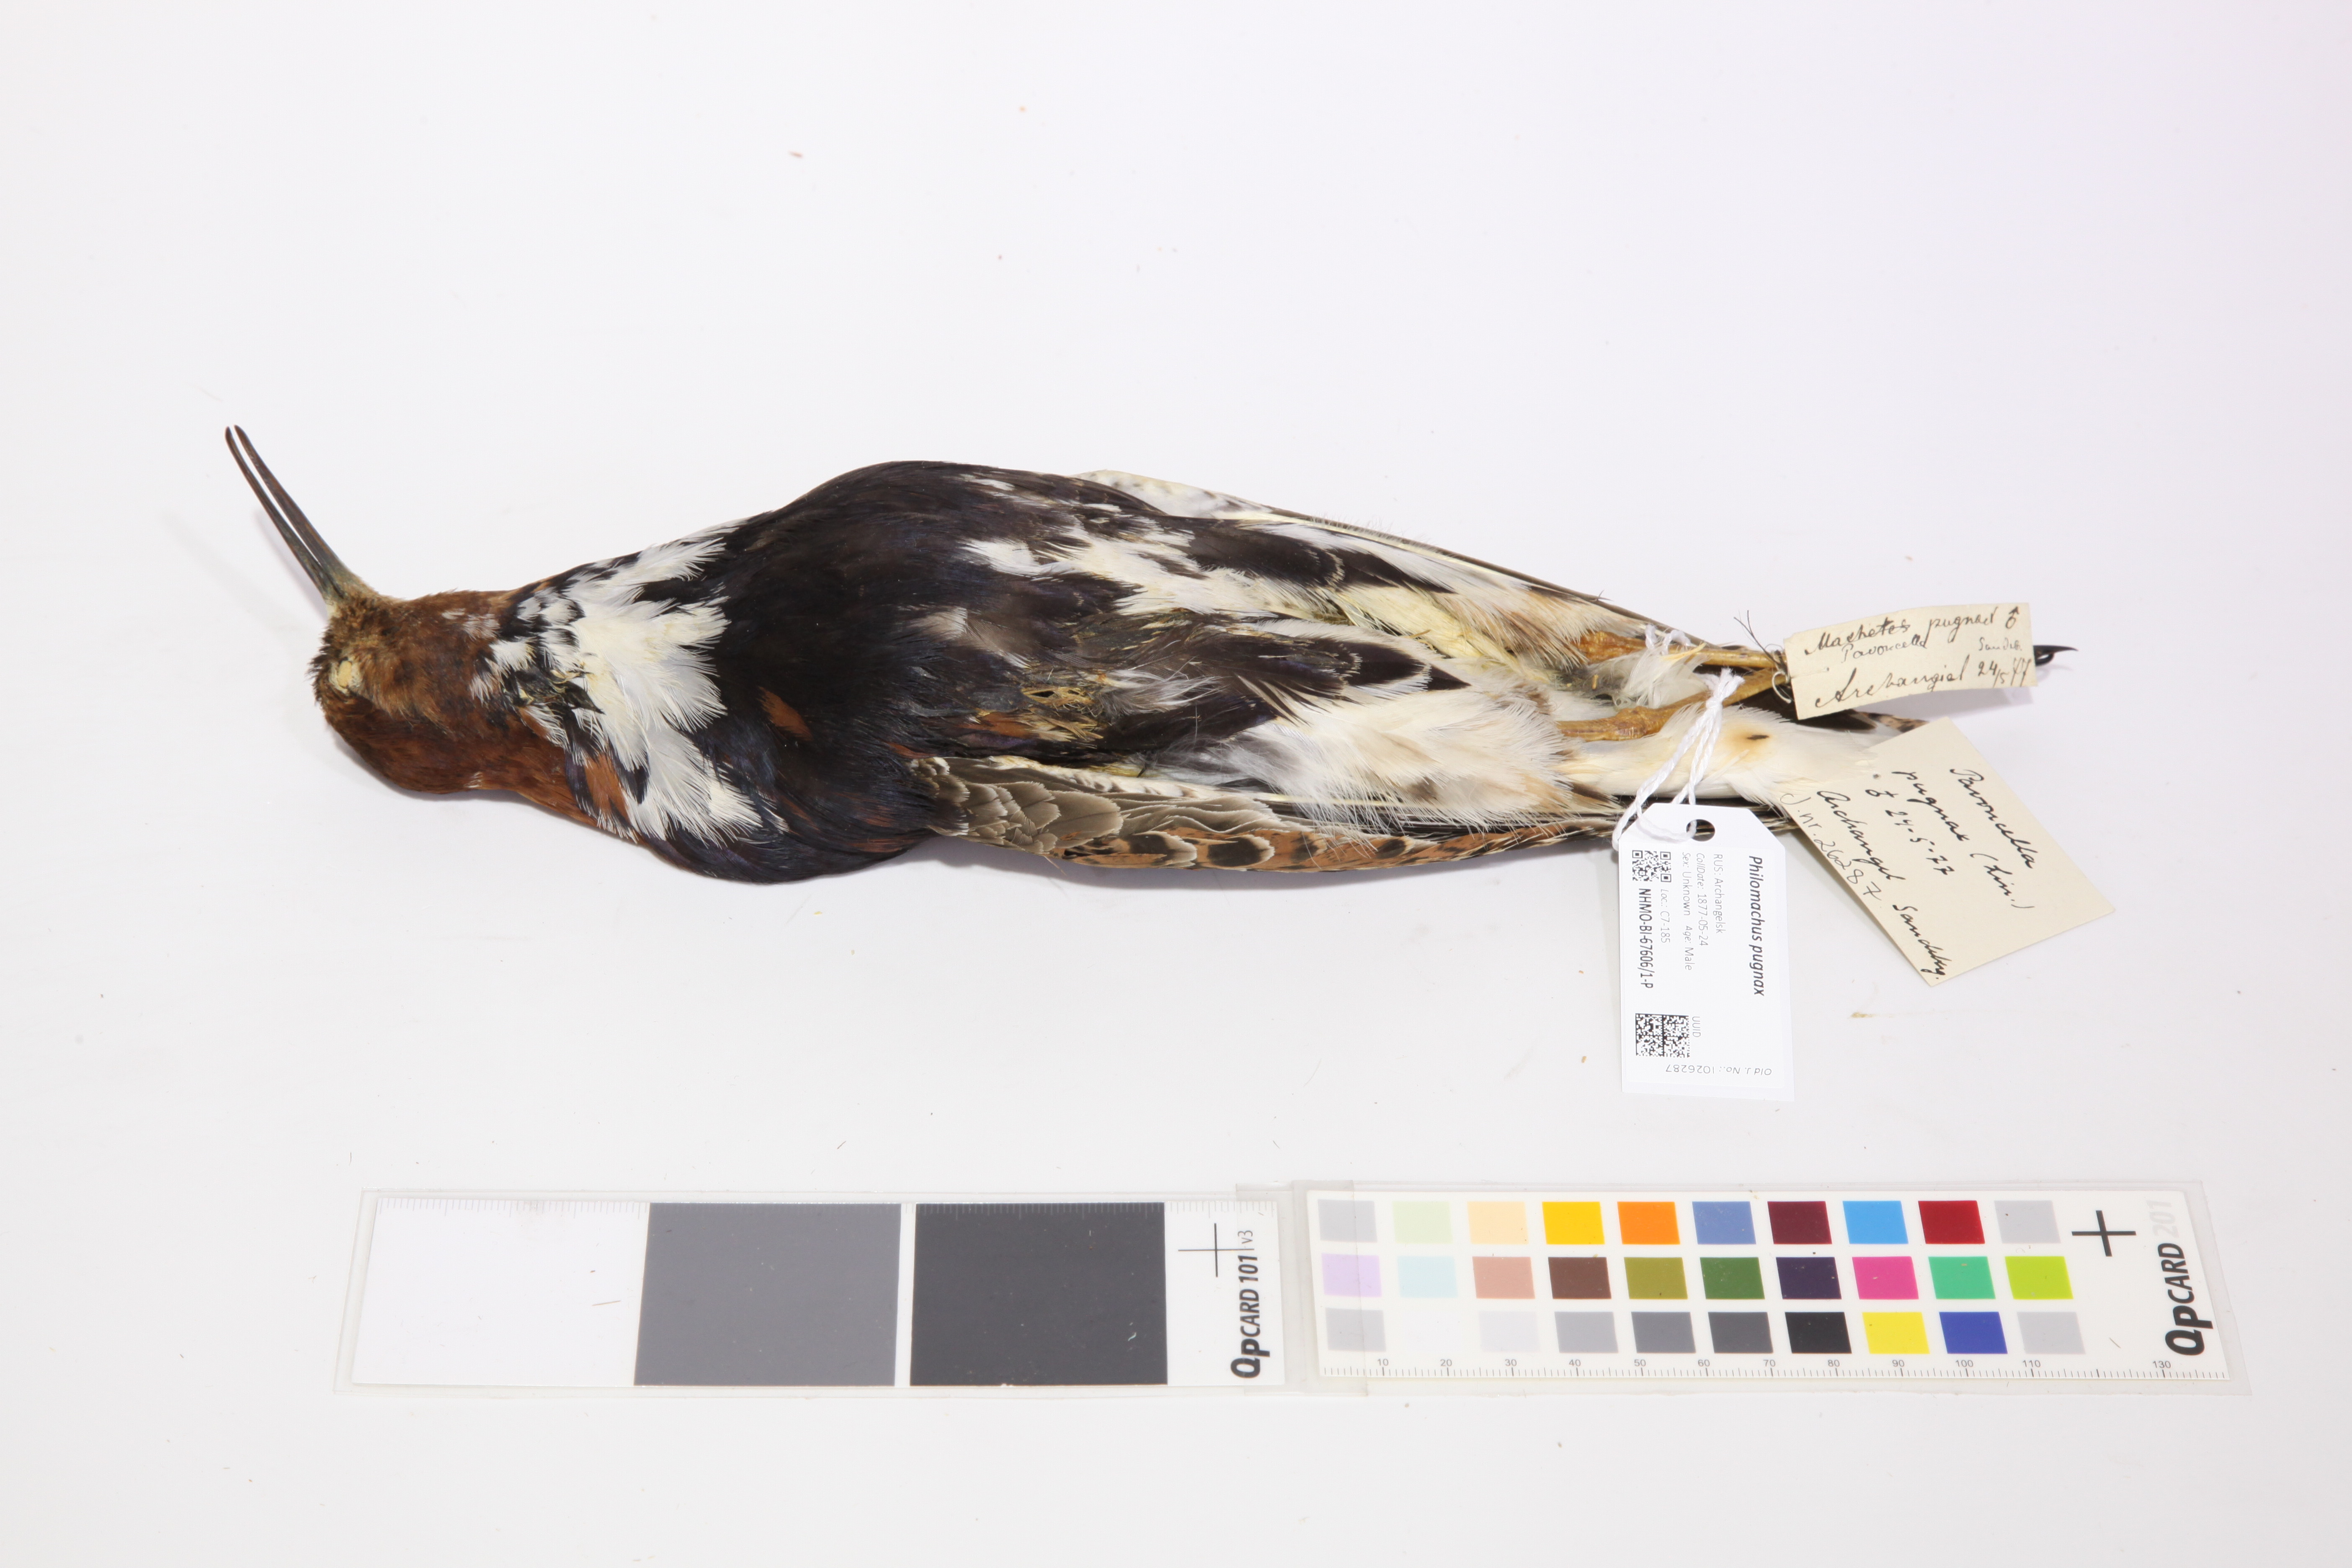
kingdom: Animalia
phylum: Chordata
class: Aves
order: Charadriiformes
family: Scolopacidae
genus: Calidris
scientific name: Calidris pugnax
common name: Ruff
